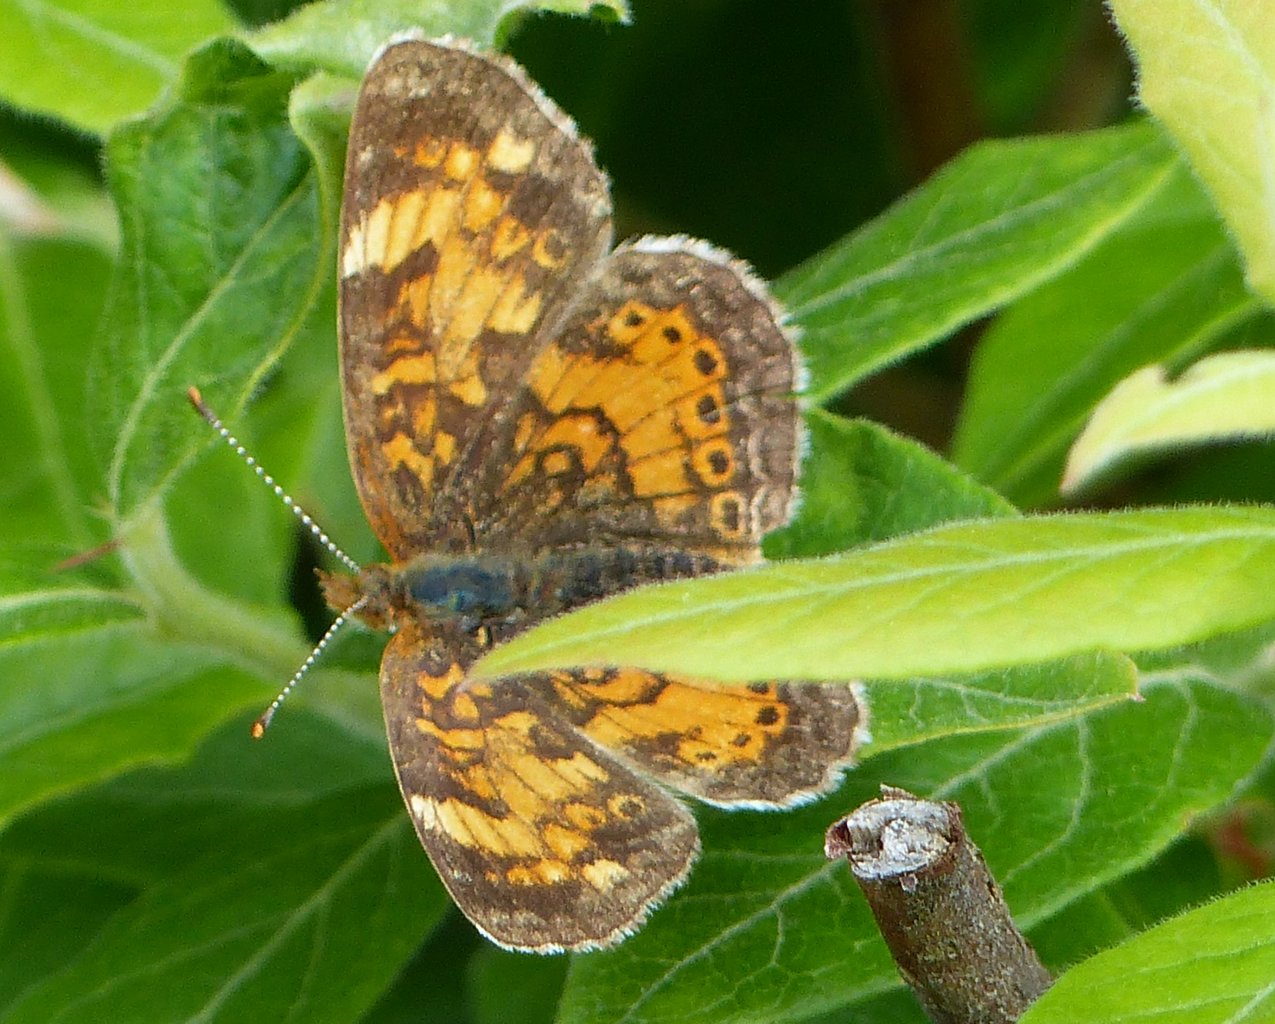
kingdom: Animalia
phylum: Arthropoda
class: Insecta
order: Lepidoptera
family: Nymphalidae
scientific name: Nymphalidae
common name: Brushfoots
